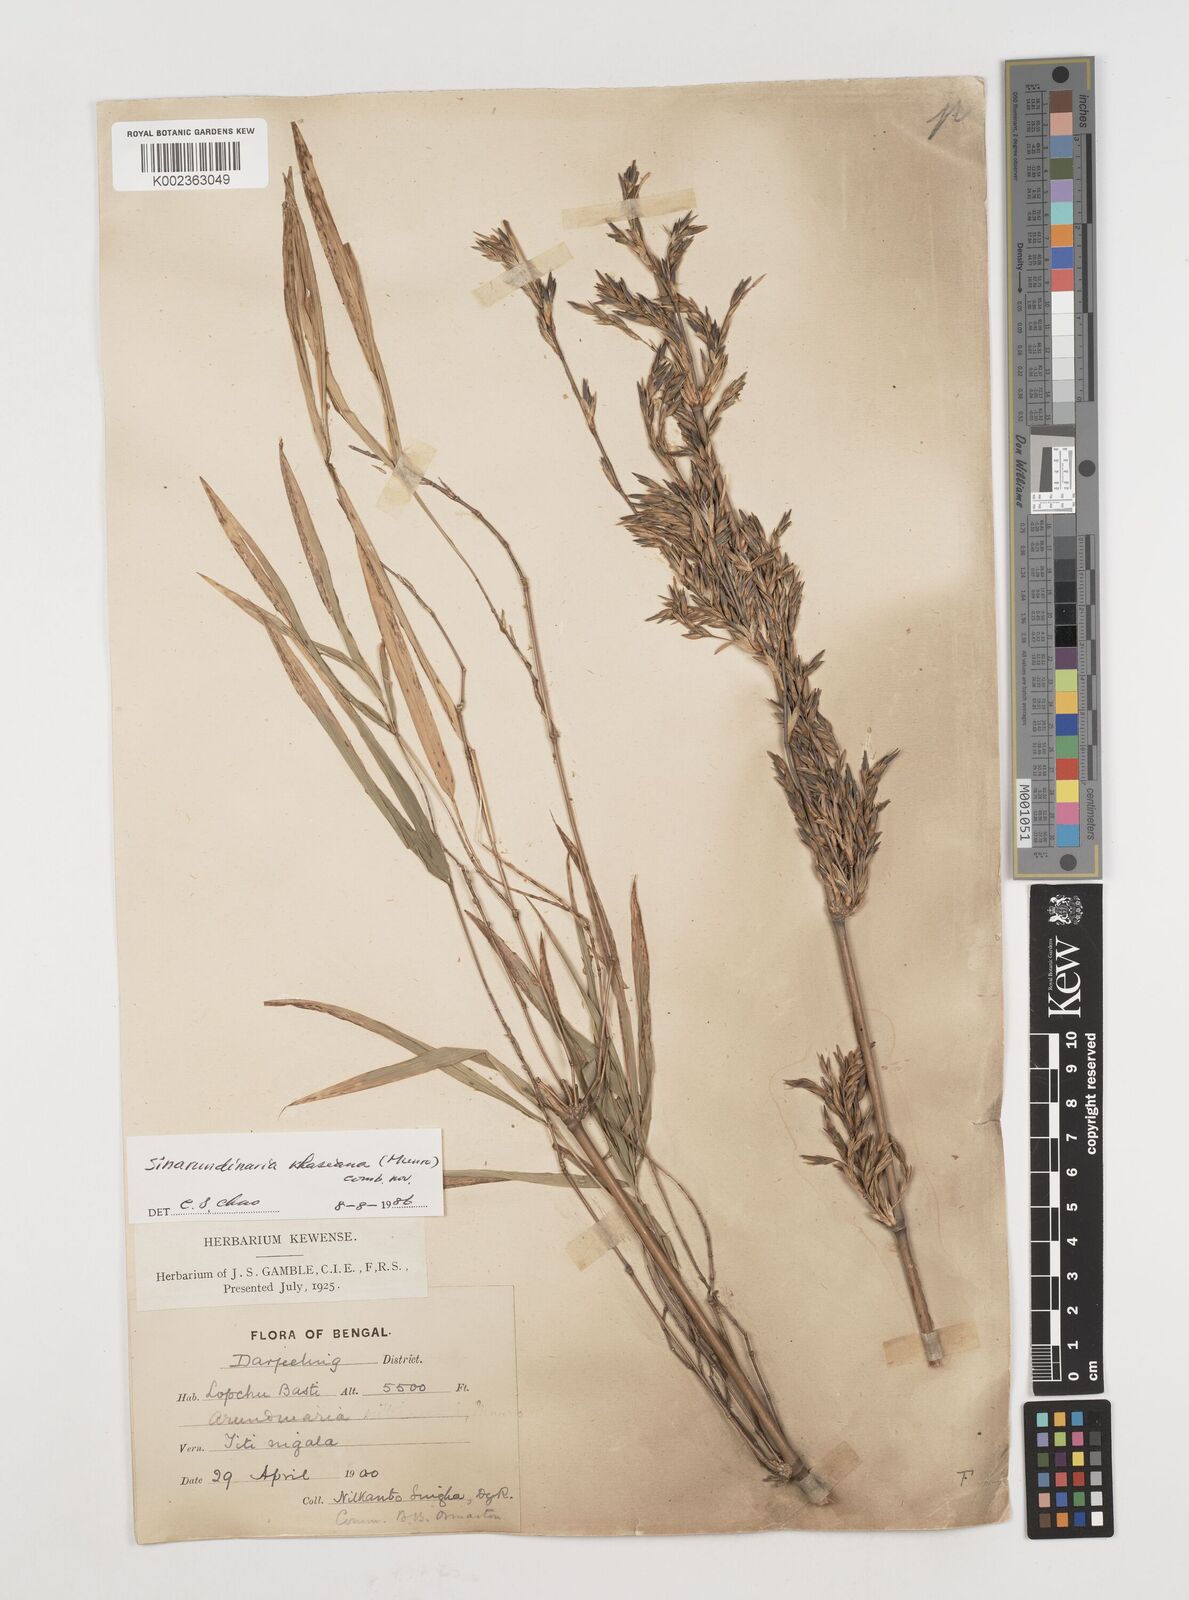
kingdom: Plantae
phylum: Tracheophyta
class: Liliopsida
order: Poales
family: Poaceae
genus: Drepanostachyum
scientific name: Drepanostachyum khasianum
